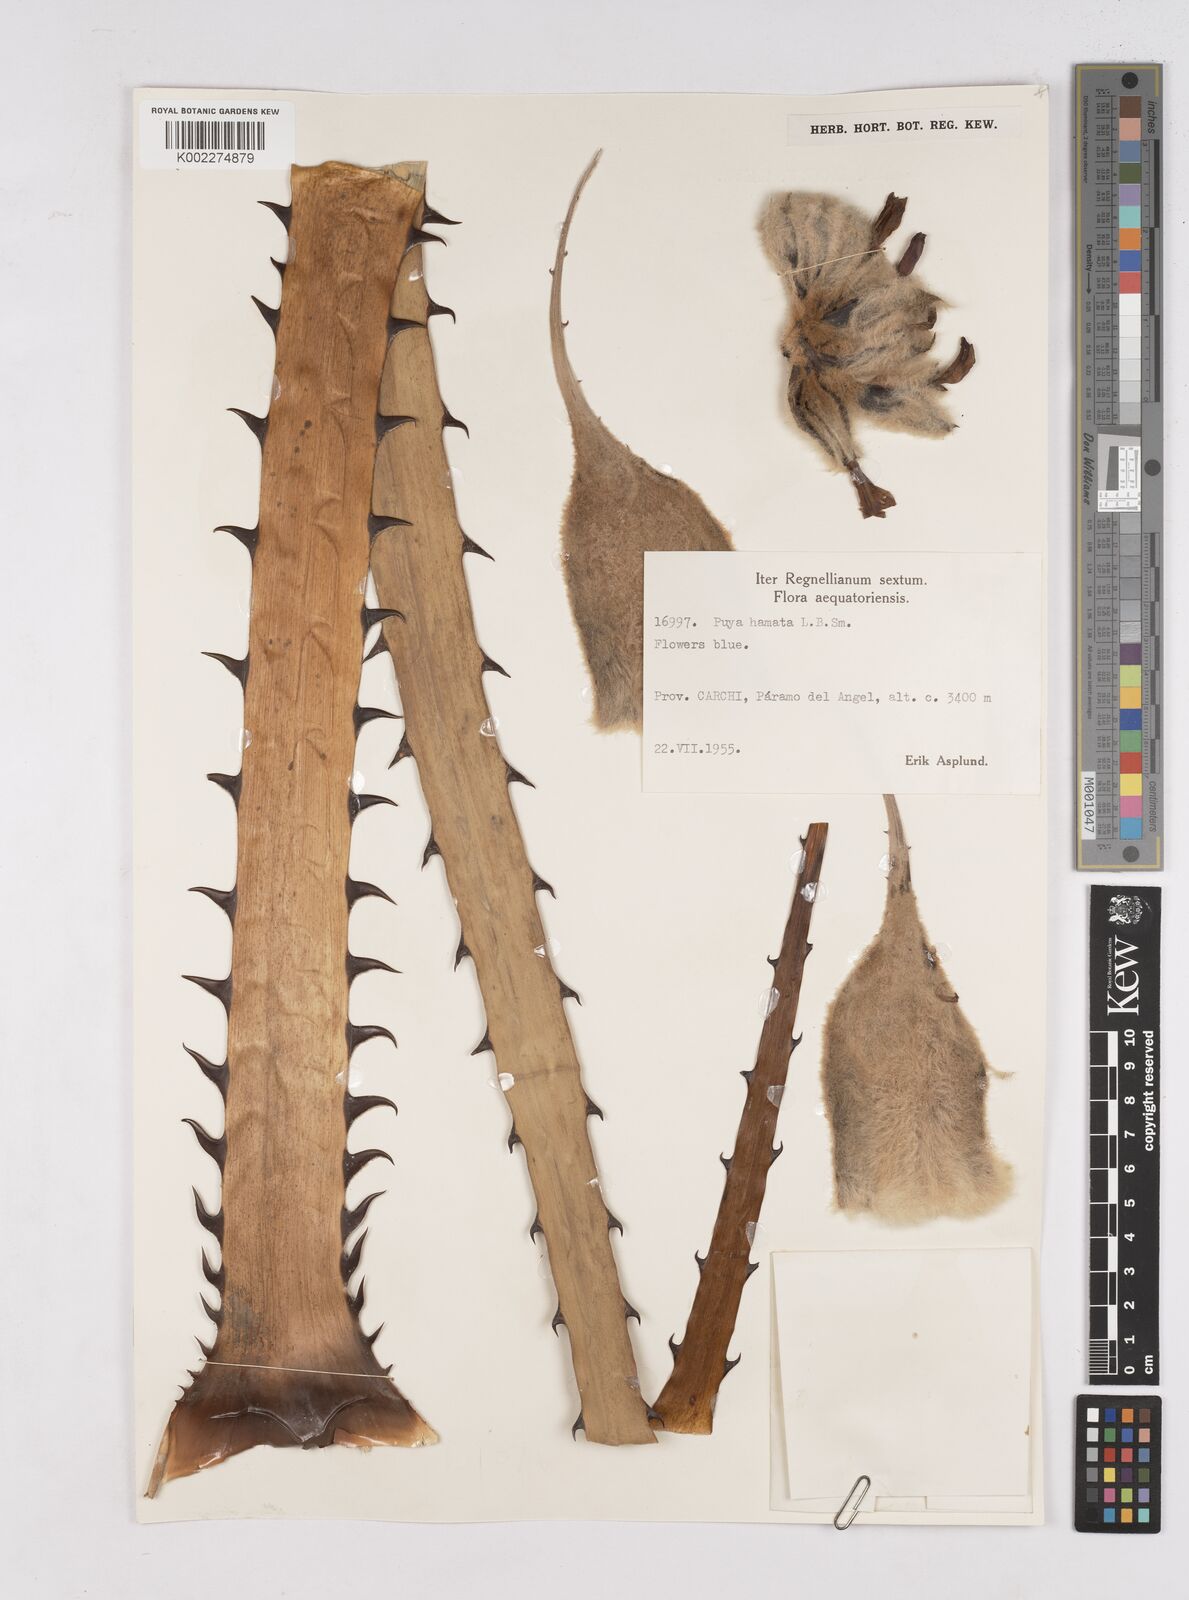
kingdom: Plantae
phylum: Tracheophyta
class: Liliopsida
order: Poales
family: Bromeliaceae
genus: Puya
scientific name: Puya hamata
